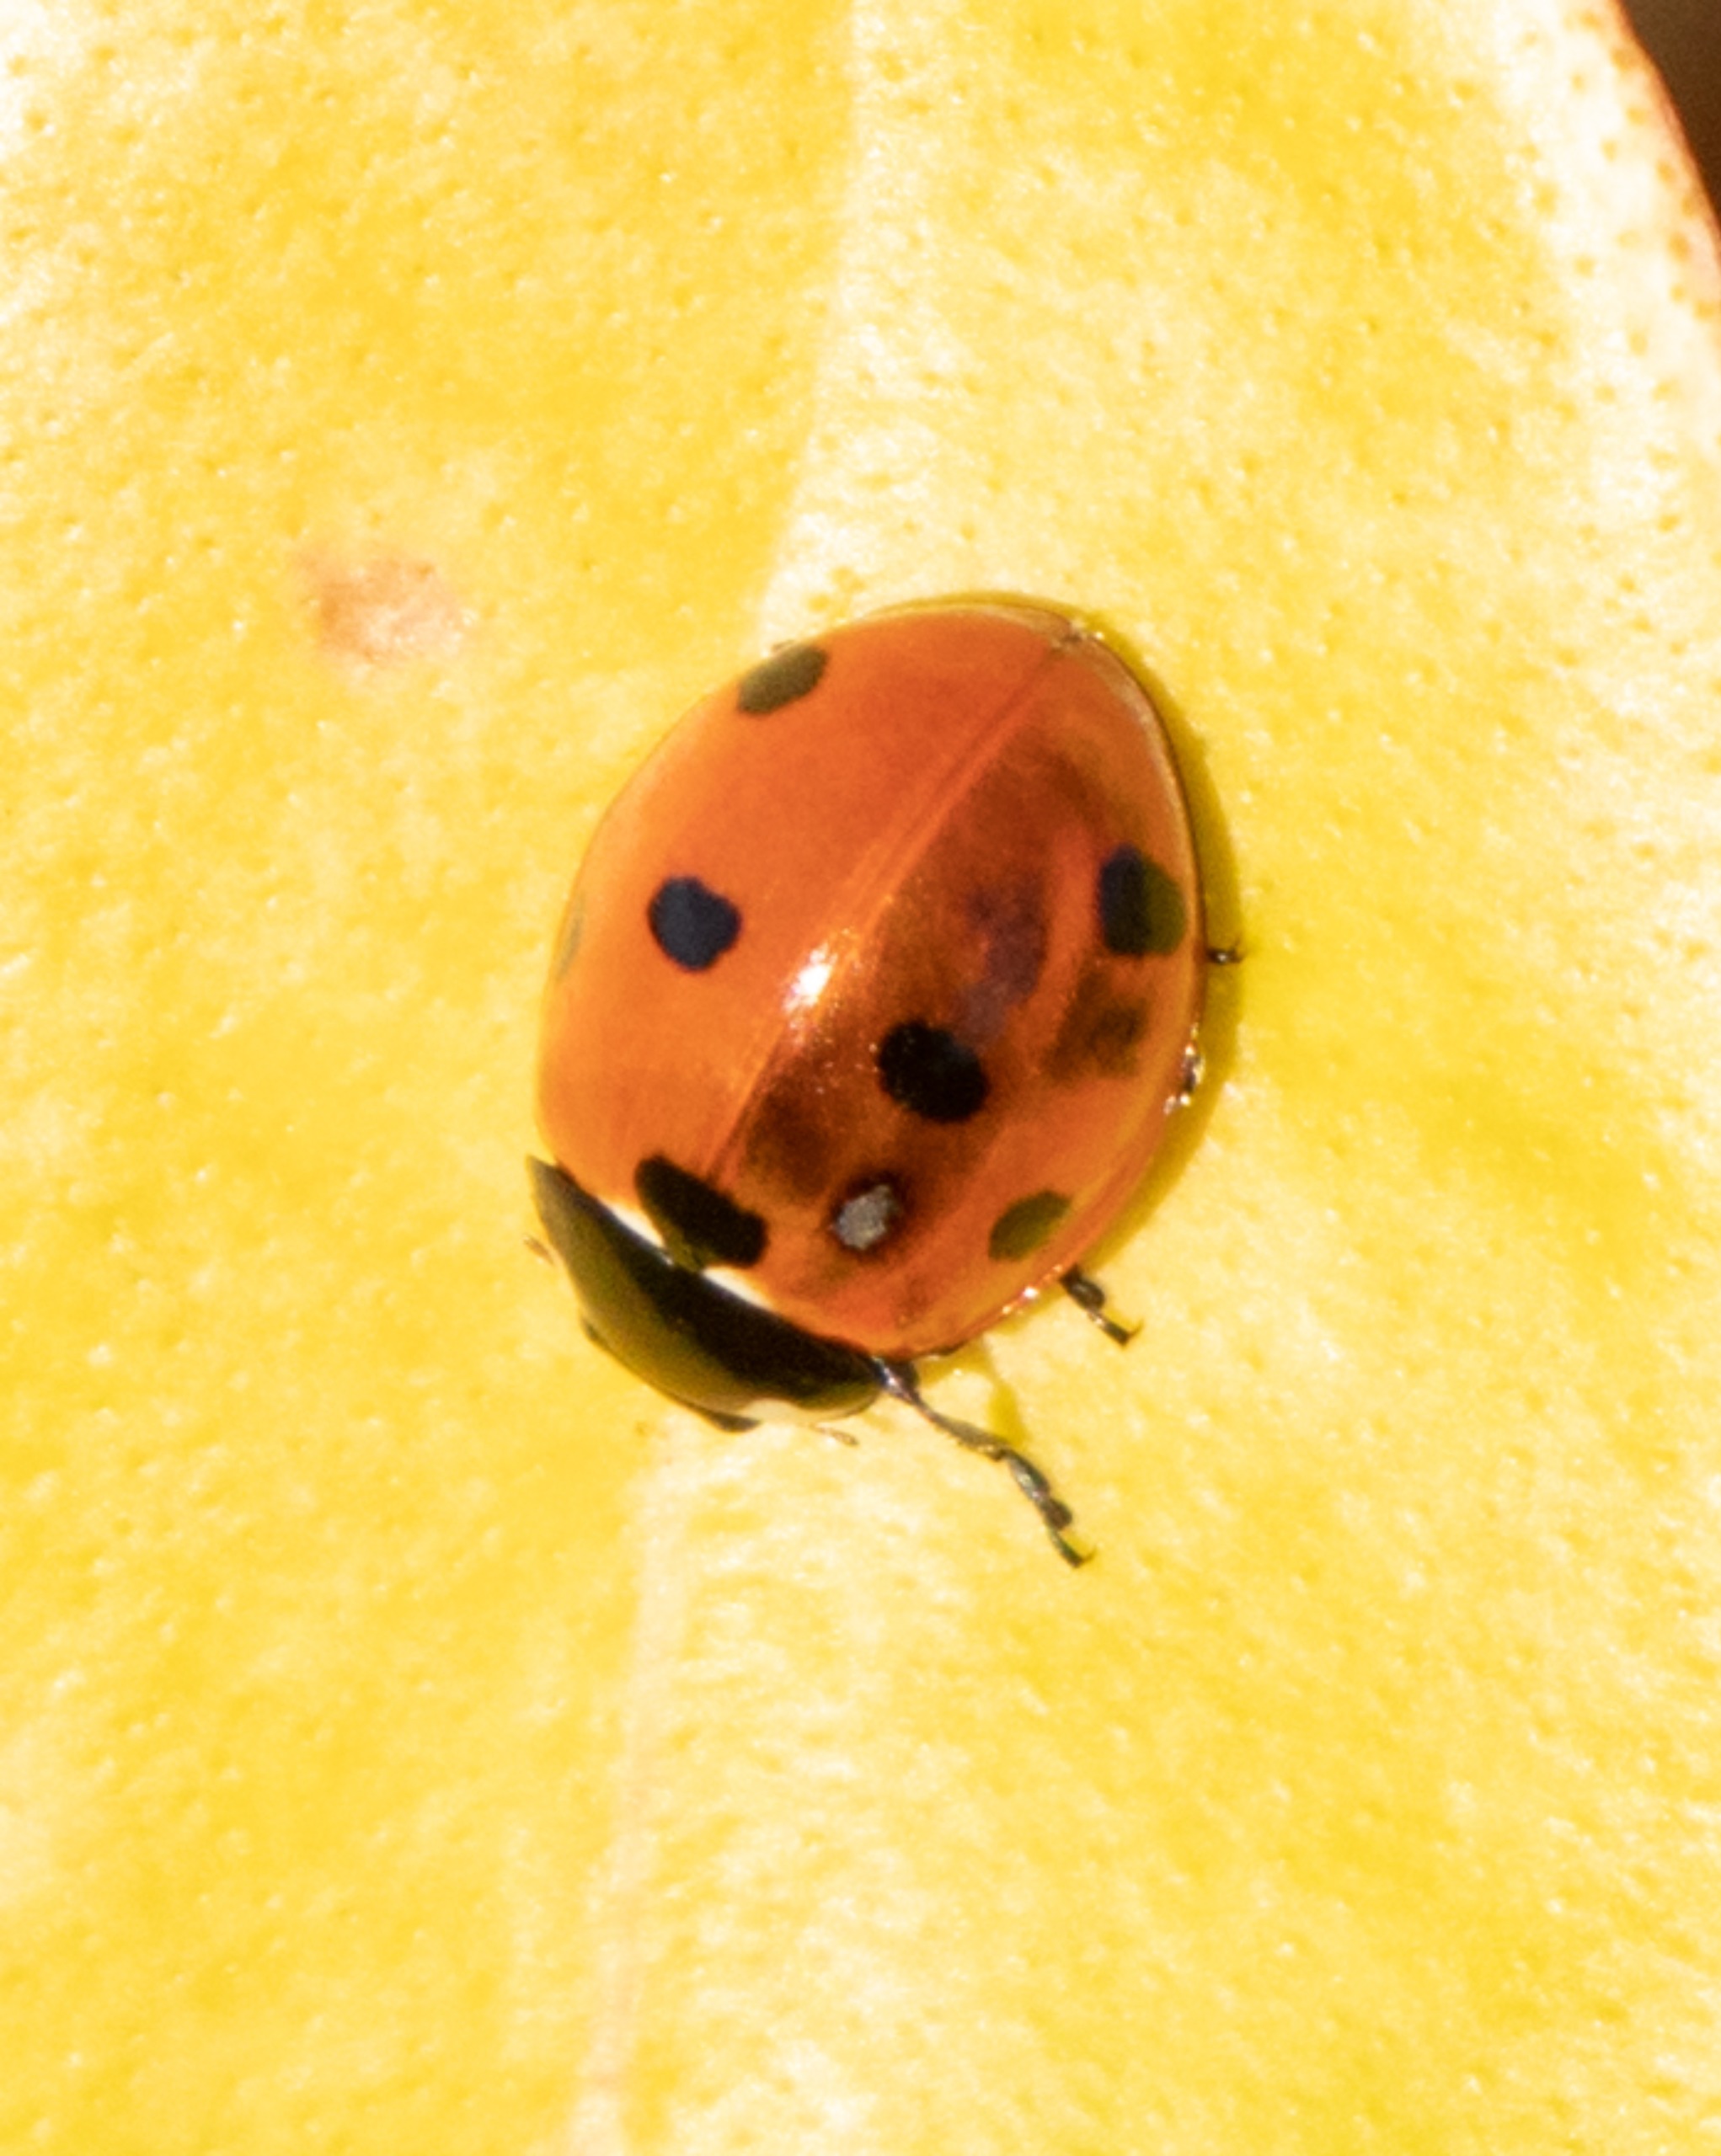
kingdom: Animalia
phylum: Arthropoda
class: Insecta
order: Coleoptera
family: Coccinellidae
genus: Coccinella
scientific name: Coccinella septempunctata
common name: Syvplettet mariehøne
